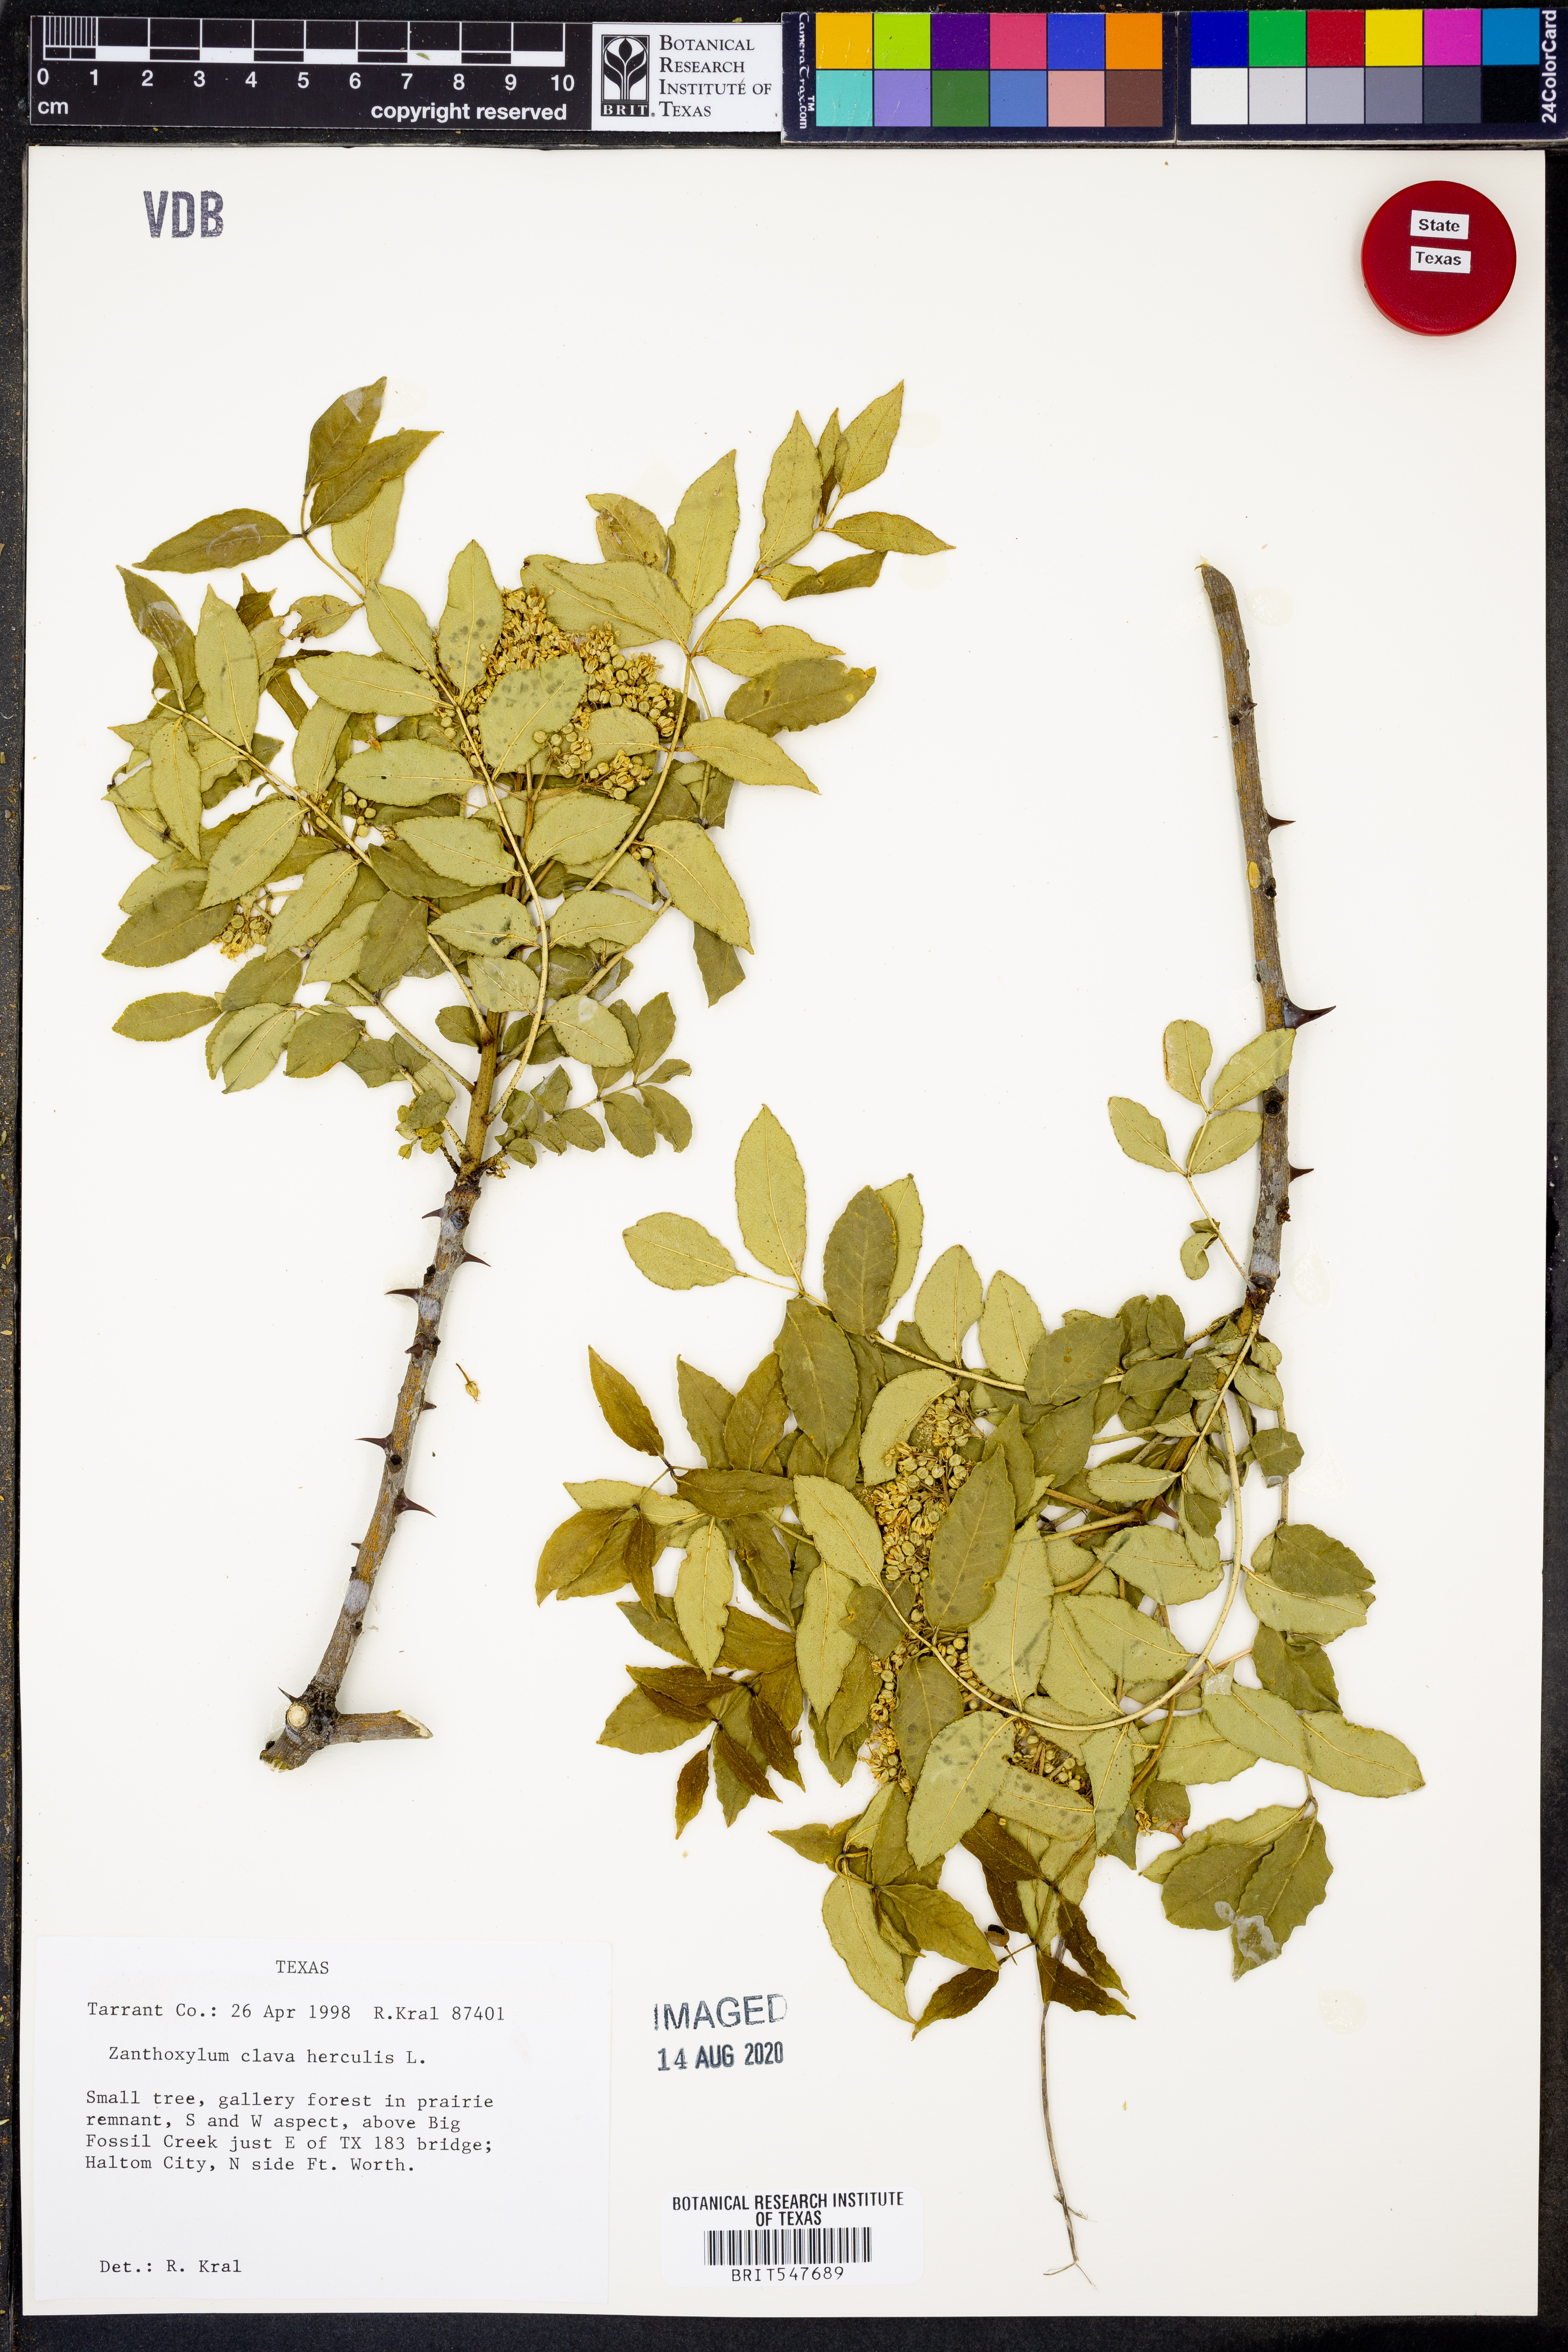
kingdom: Plantae
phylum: Tracheophyta
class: Magnoliopsida
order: Sapindales
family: Rutaceae
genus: Zanthoxylum
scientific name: Zanthoxylum avicennae
